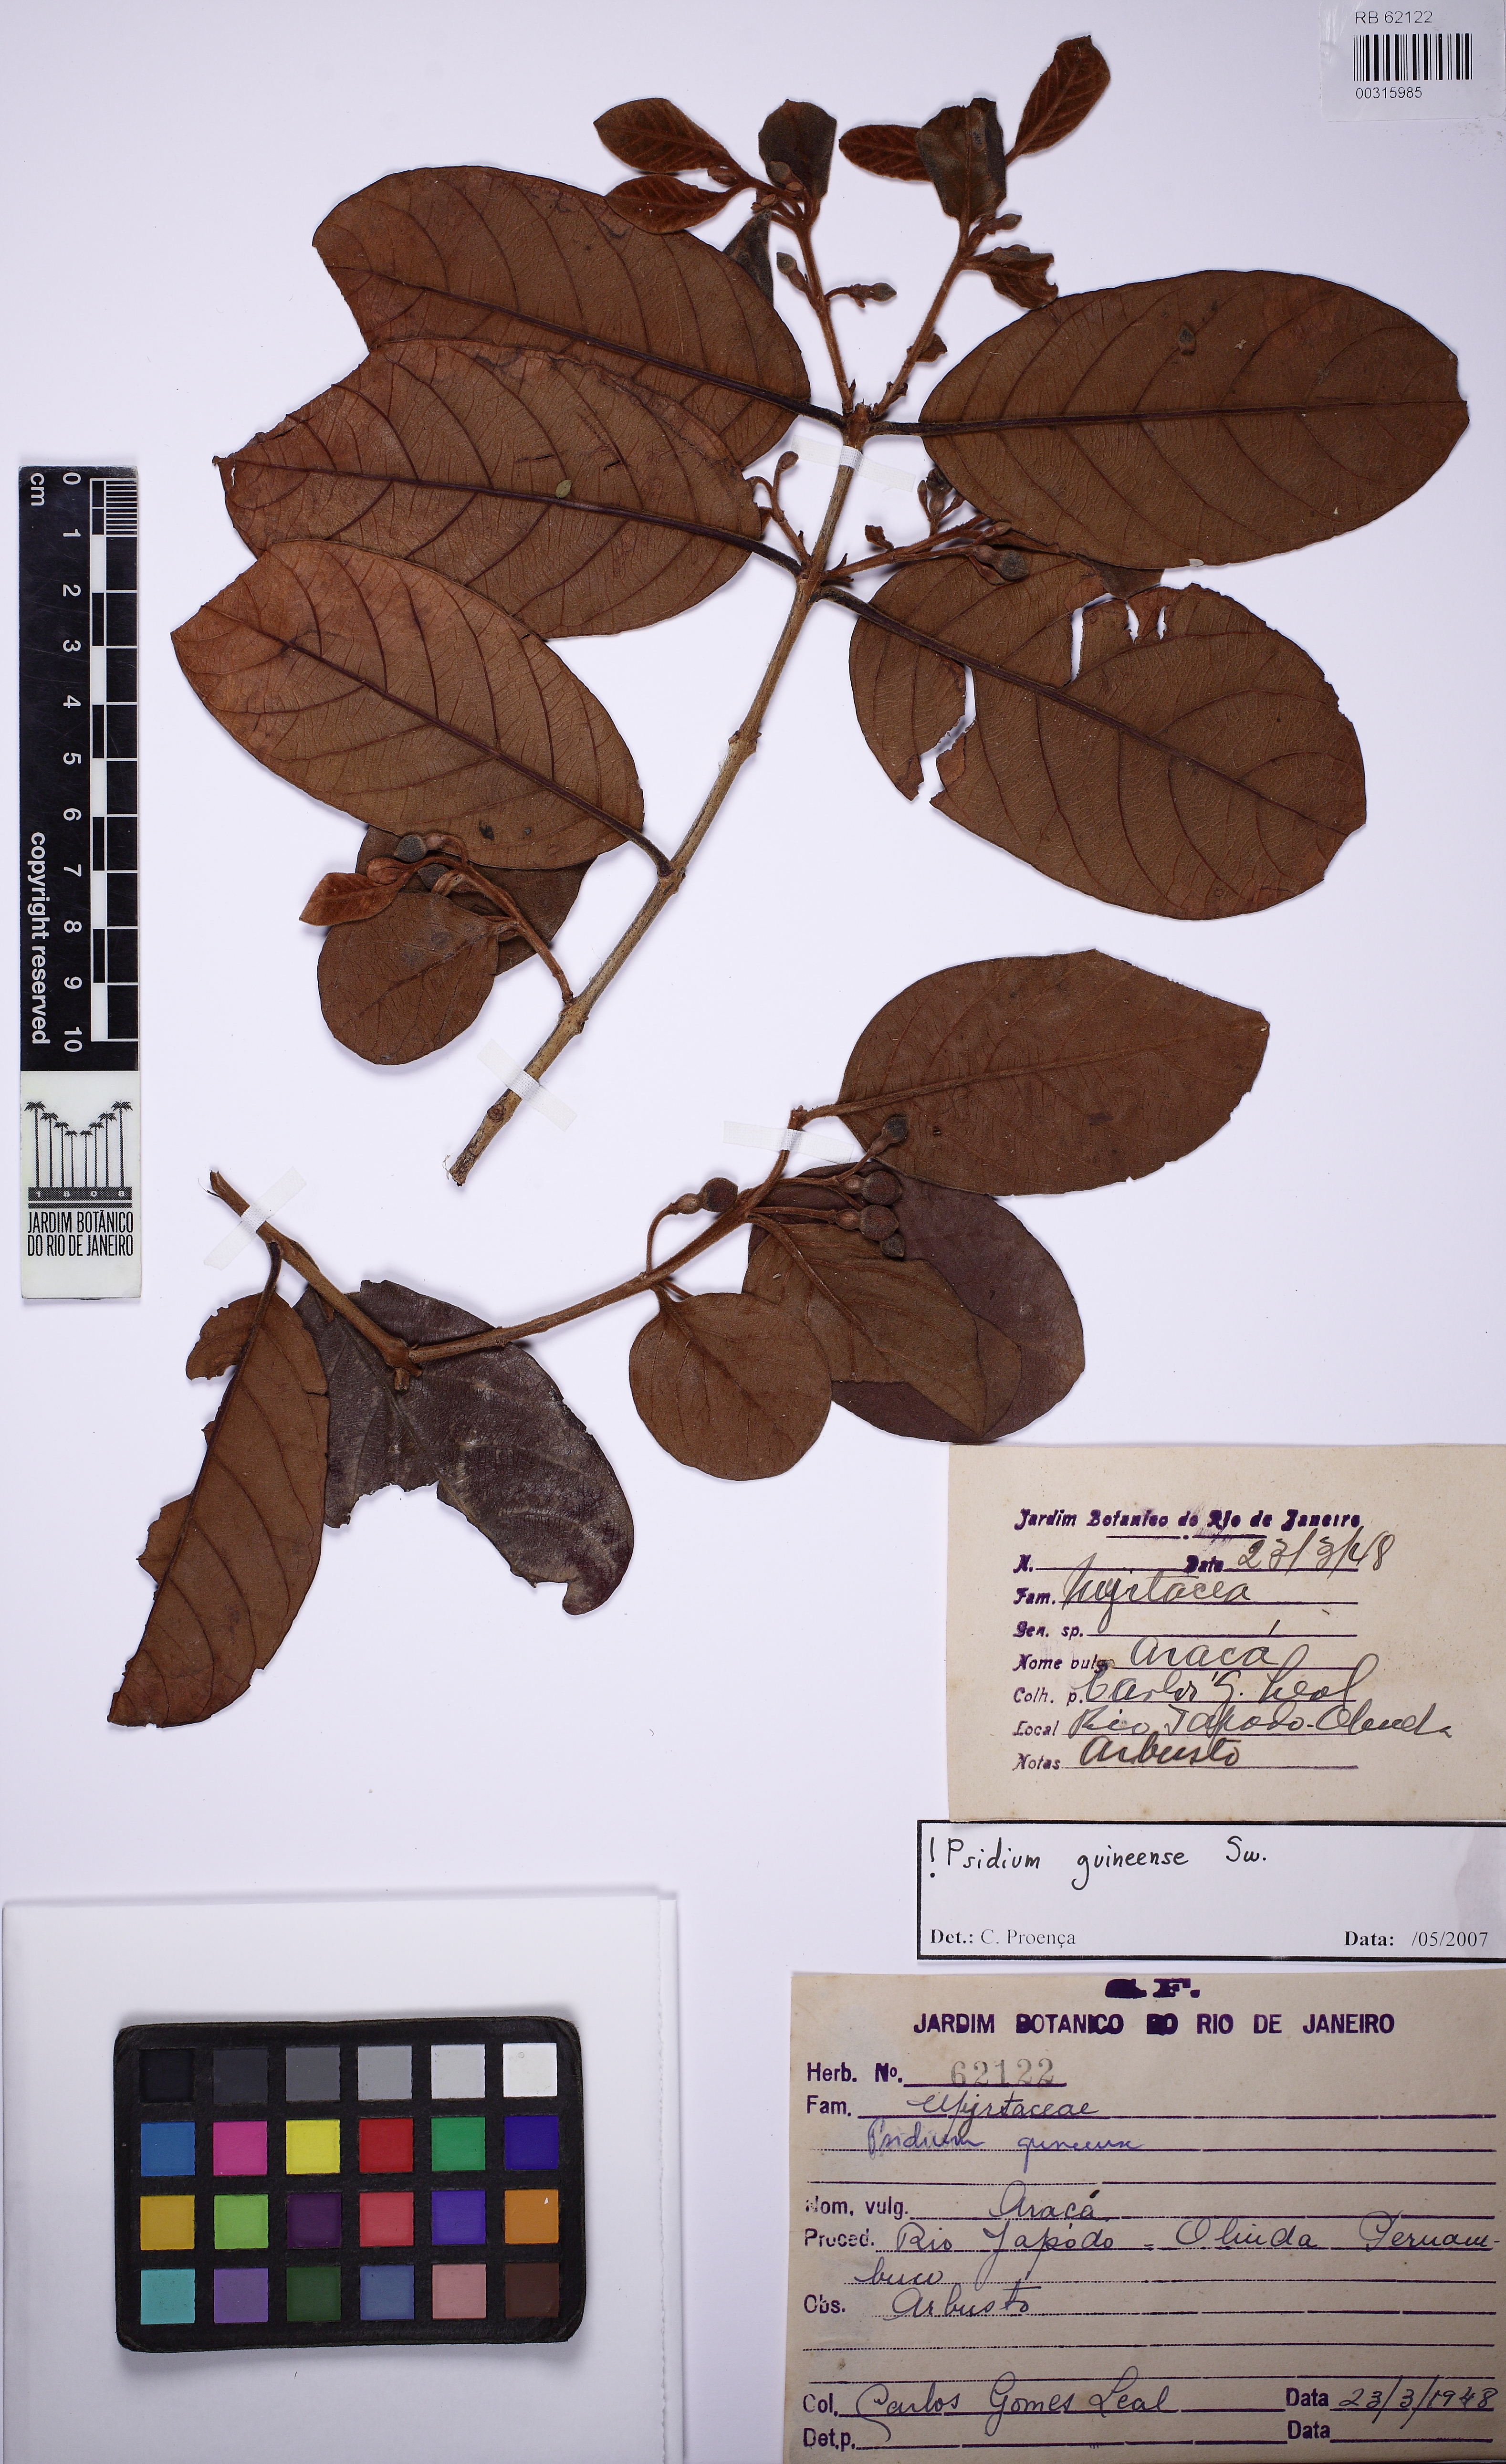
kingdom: Plantae
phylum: Tracheophyta
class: Magnoliopsida
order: Myrtales
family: Myrtaceae
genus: Psidium
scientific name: Psidium guineense
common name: Brazilian guava
